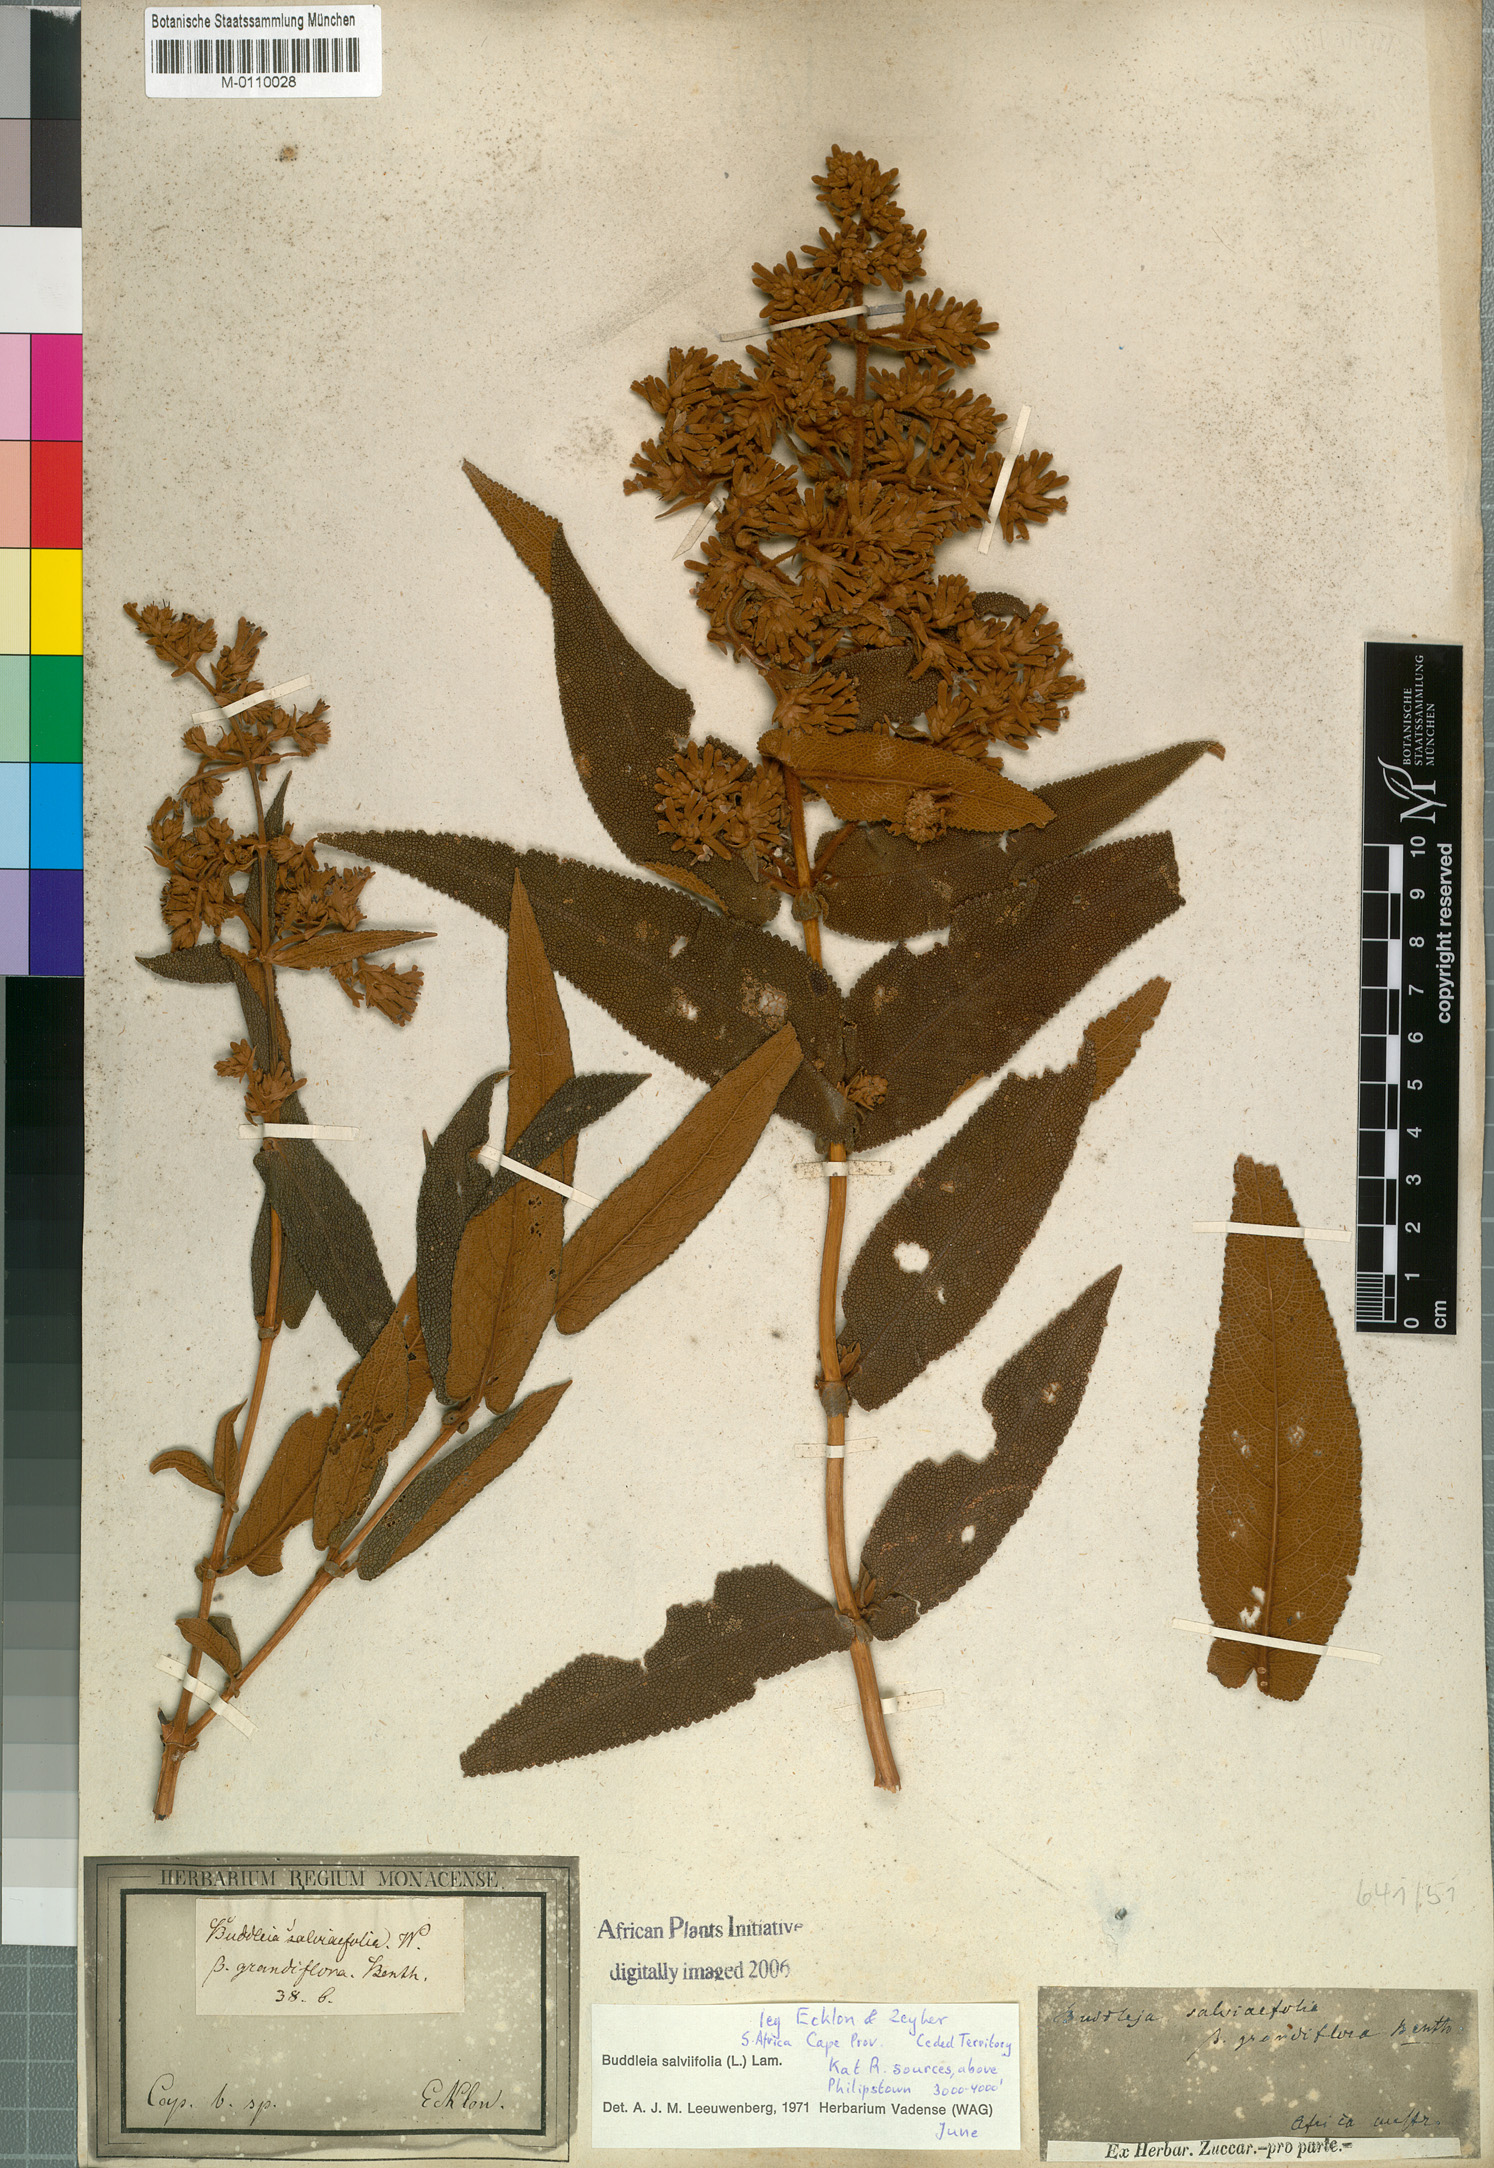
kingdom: Plantae
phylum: Tracheophyta
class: Magnoliopsida
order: Lamiales
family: Scrophulariaceae
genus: Buddleja
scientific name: Buddleja salviifolia
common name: Sagewood
